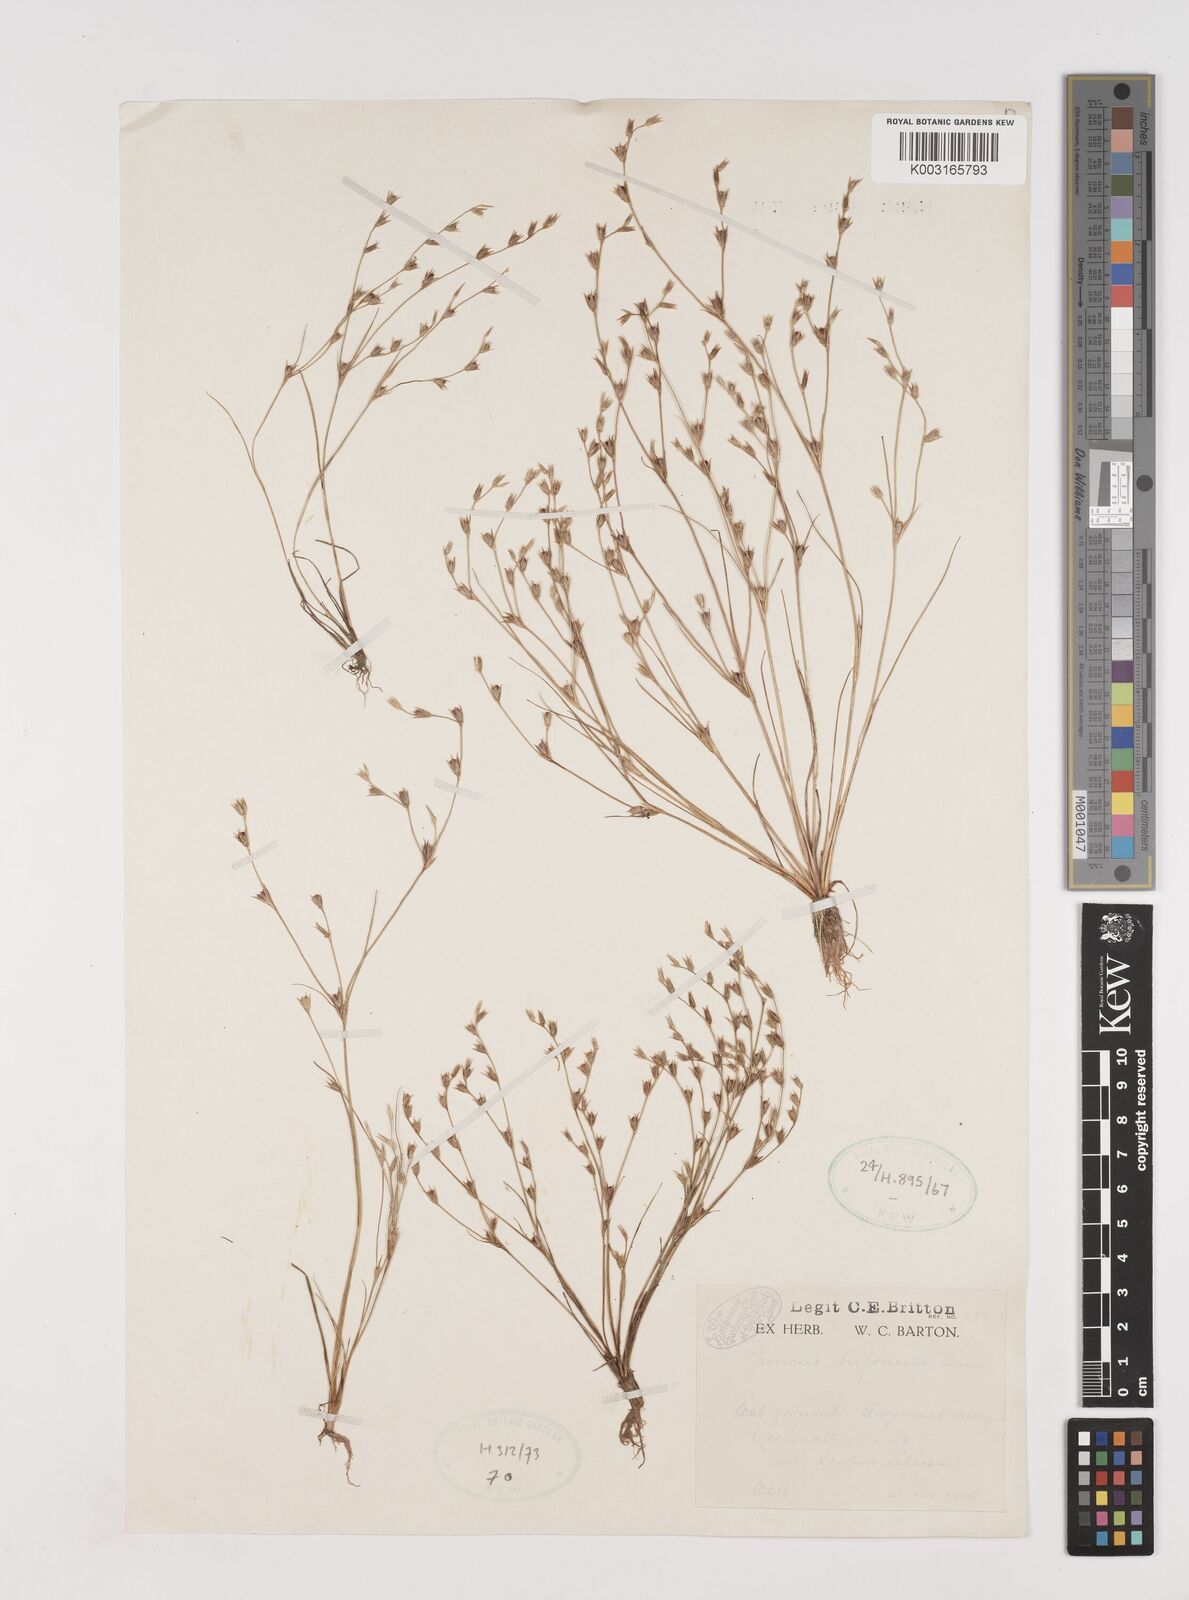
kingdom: Plantae
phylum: Tracheophyta
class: Liliopsida
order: Poales
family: Juncaceae
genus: Juncus
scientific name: Juncus bufonius
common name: Toad rush
